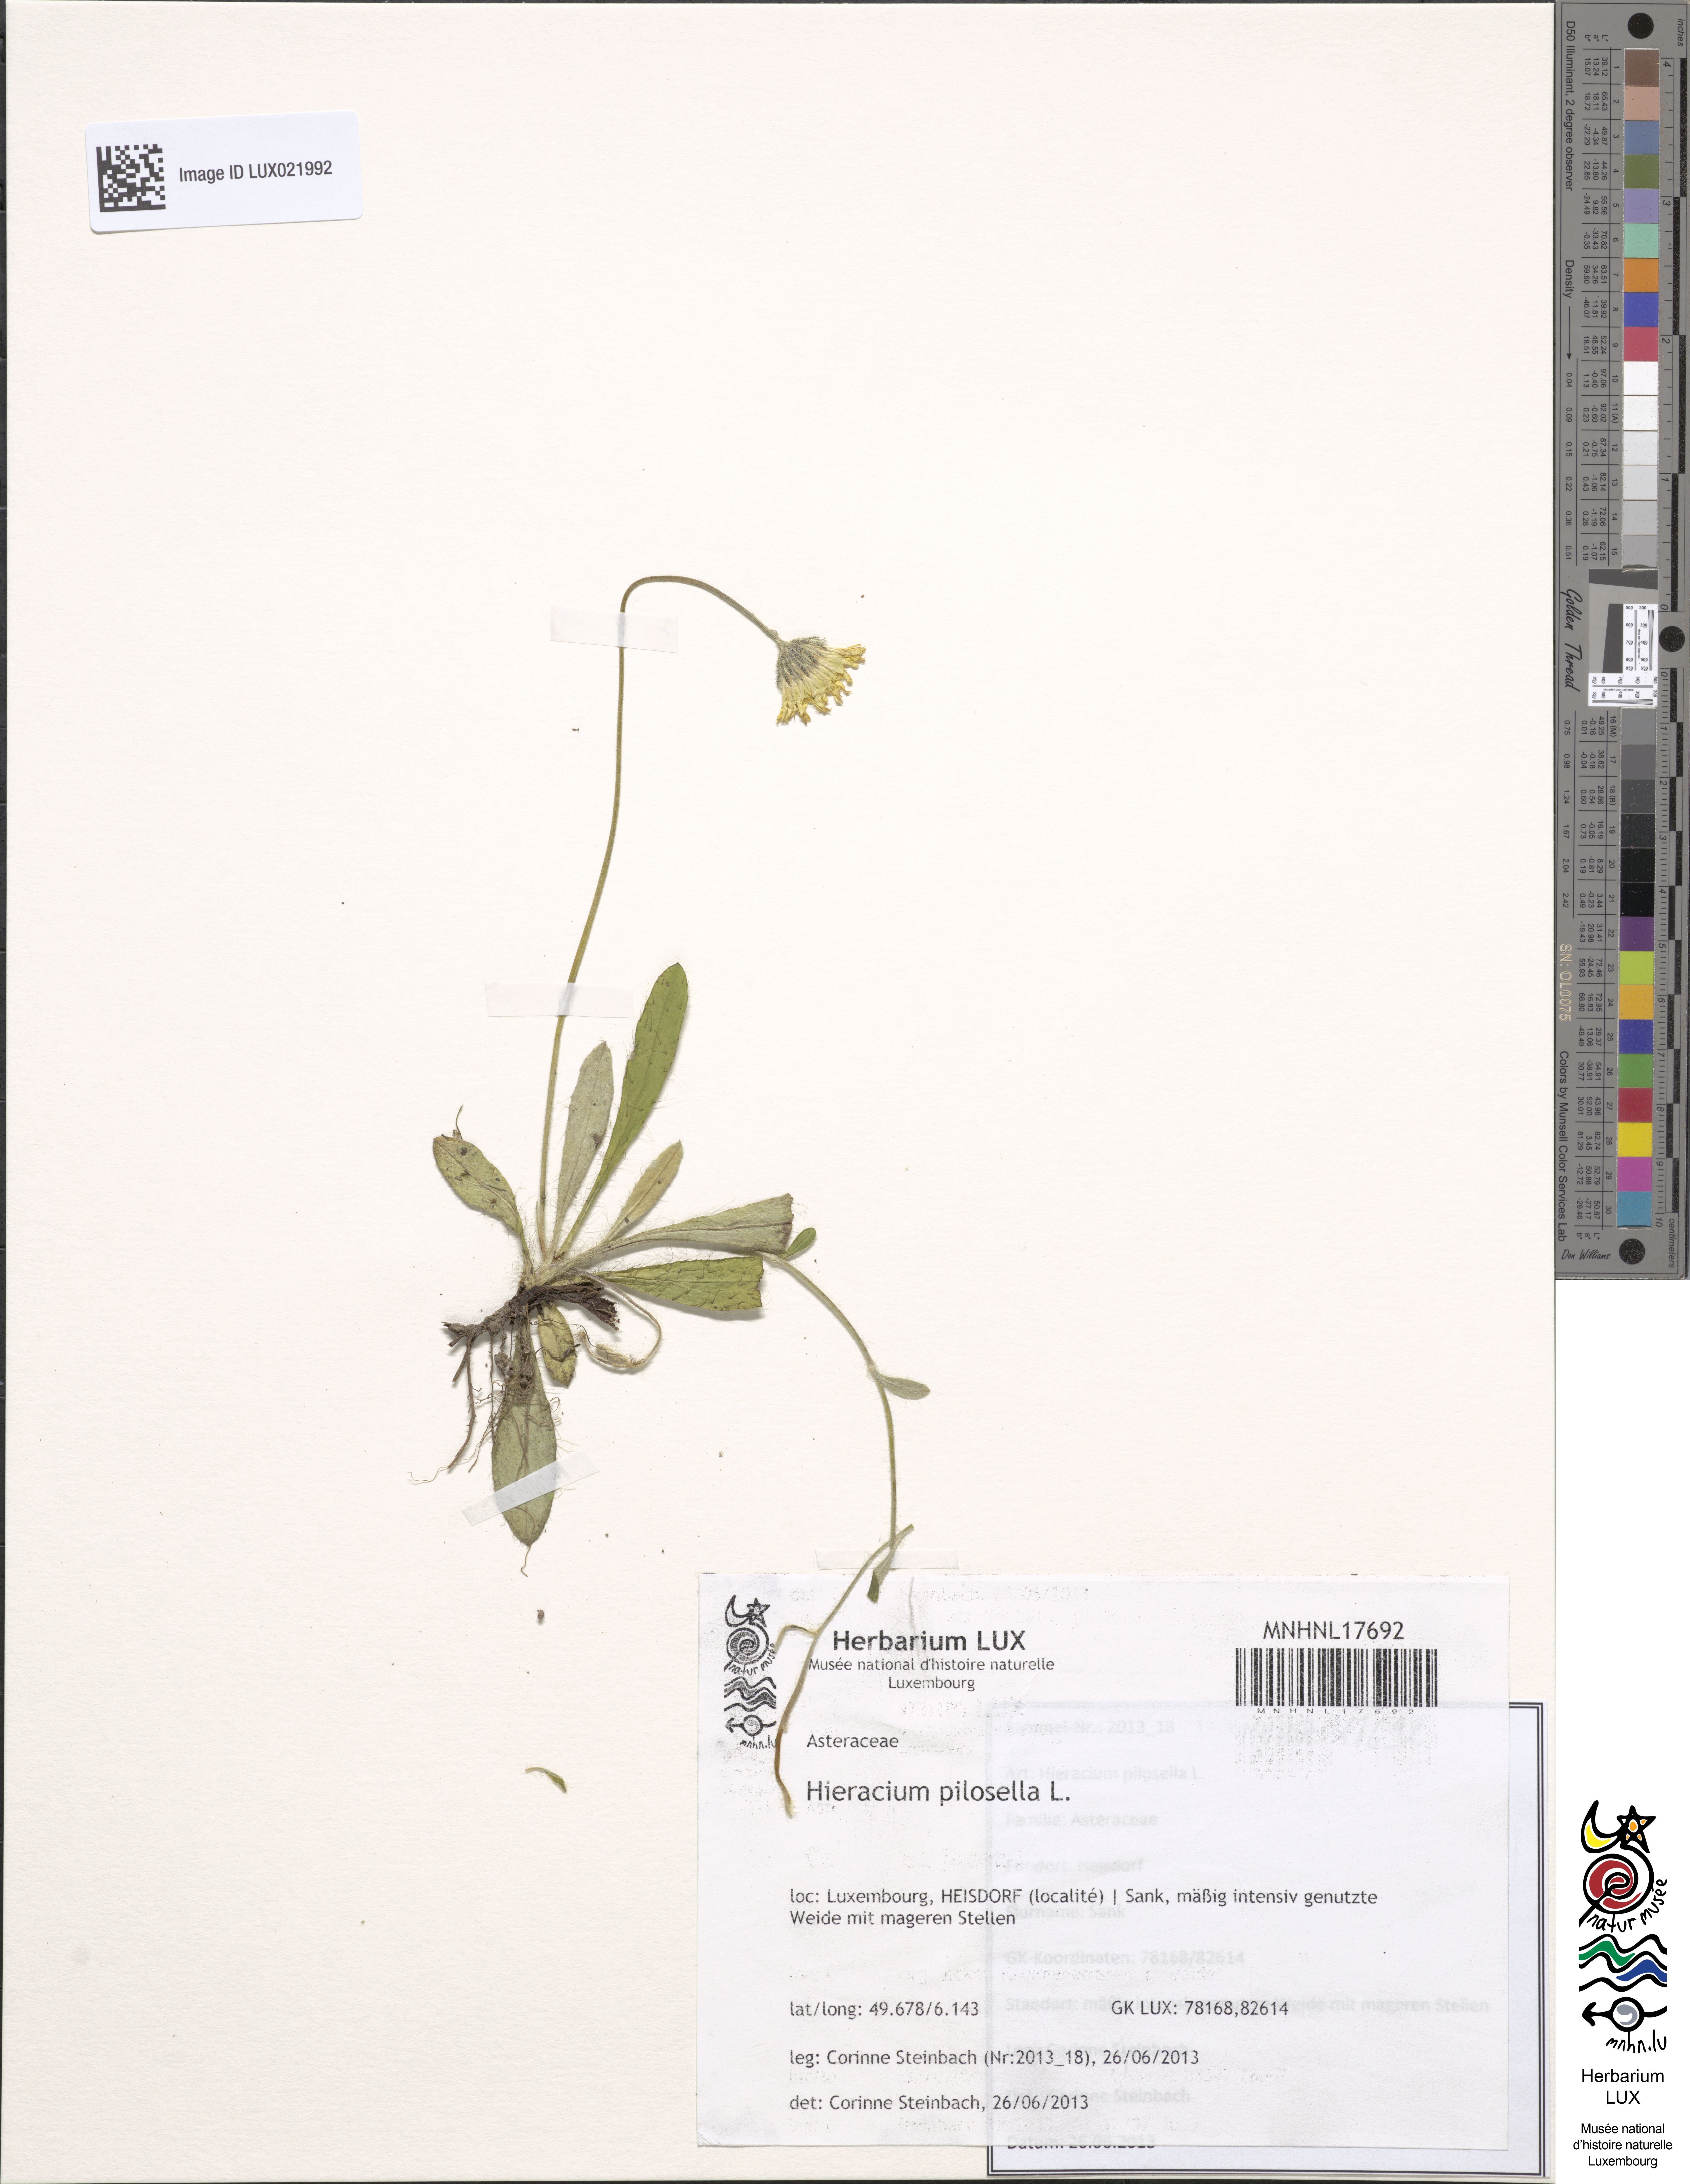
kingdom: Plantae
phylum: Tracheophyta
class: Magnoliopsida
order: Asterales
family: Asteraceae
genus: Pilosella
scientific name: Pilosella officinarum
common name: Mouse-ear hawkweed
